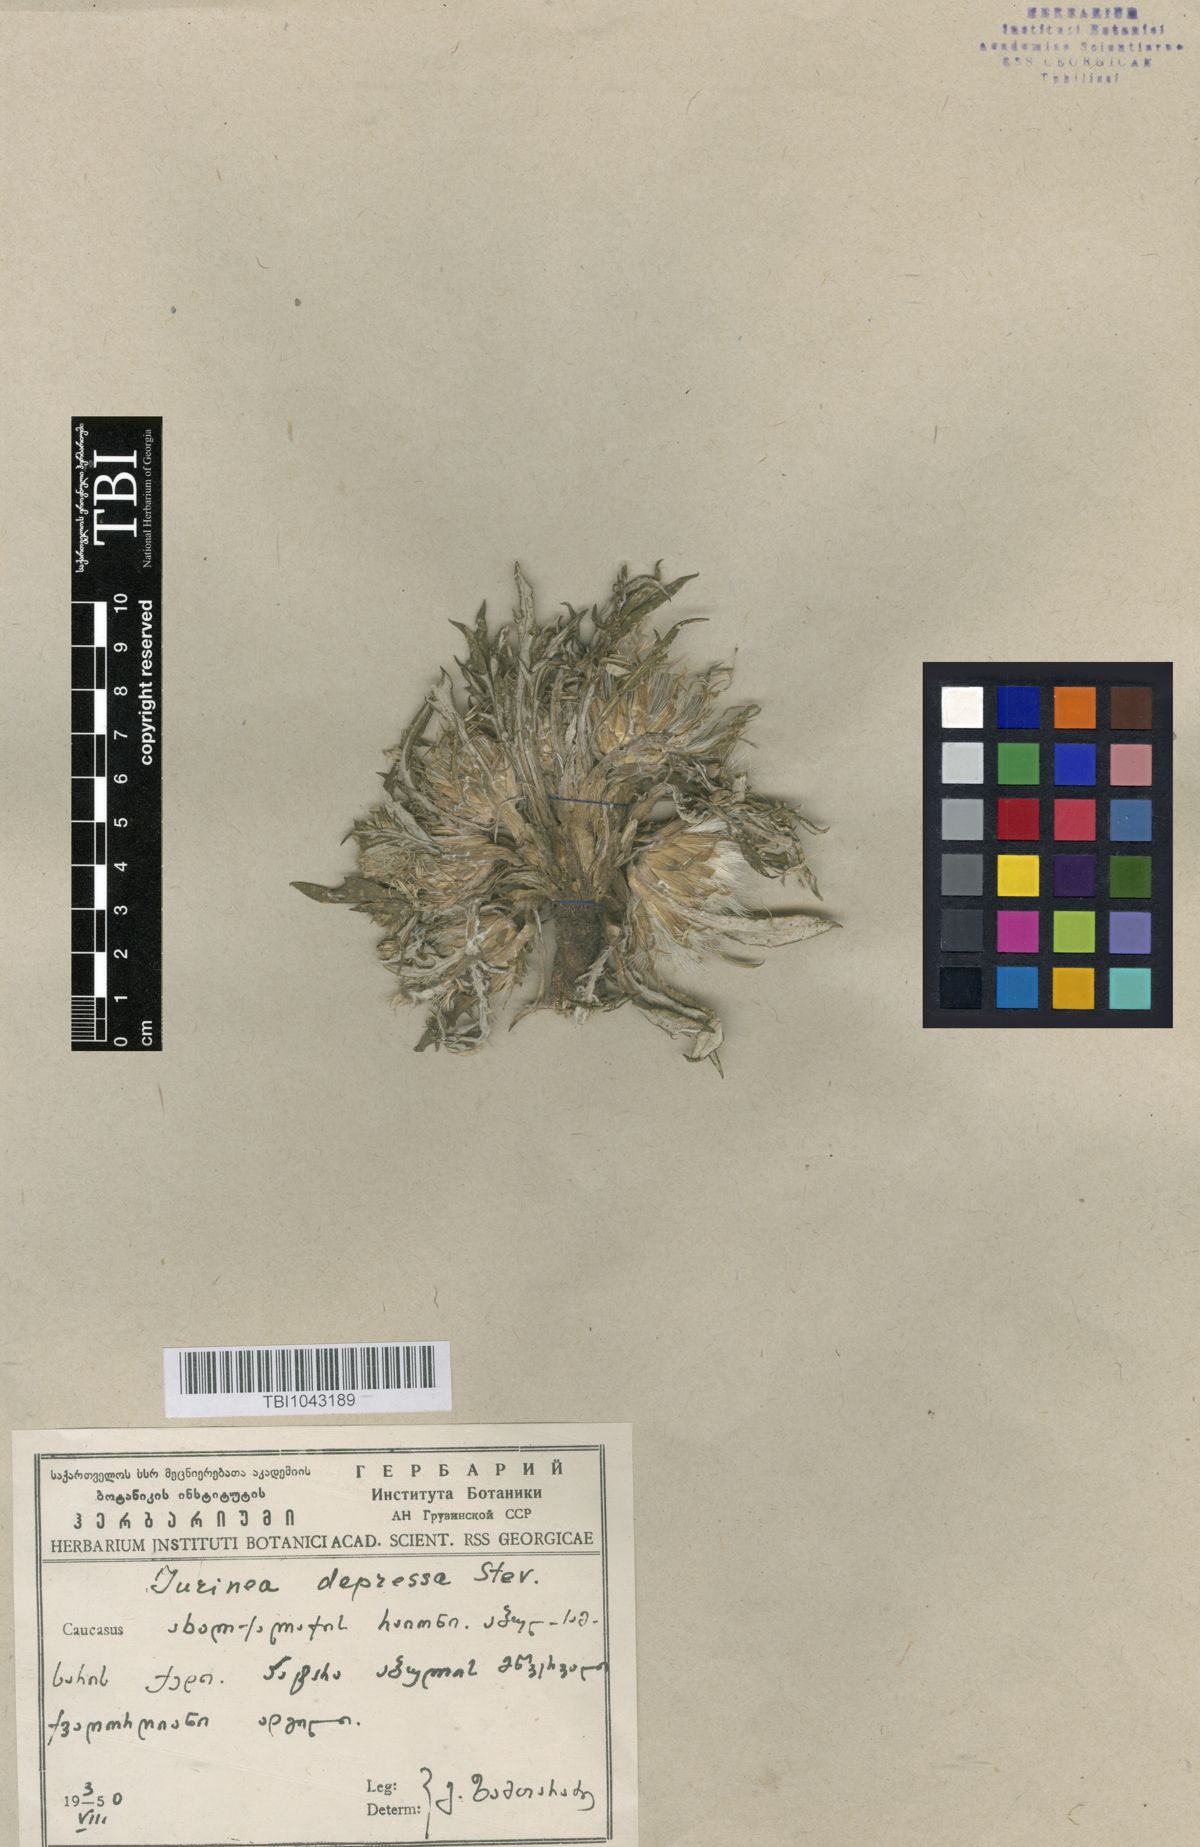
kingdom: Plantae
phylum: Tracheophyta
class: Magnoliopsida
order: Asterales
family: Asteraceae
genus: Jurinea
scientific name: Jurinea moschus
